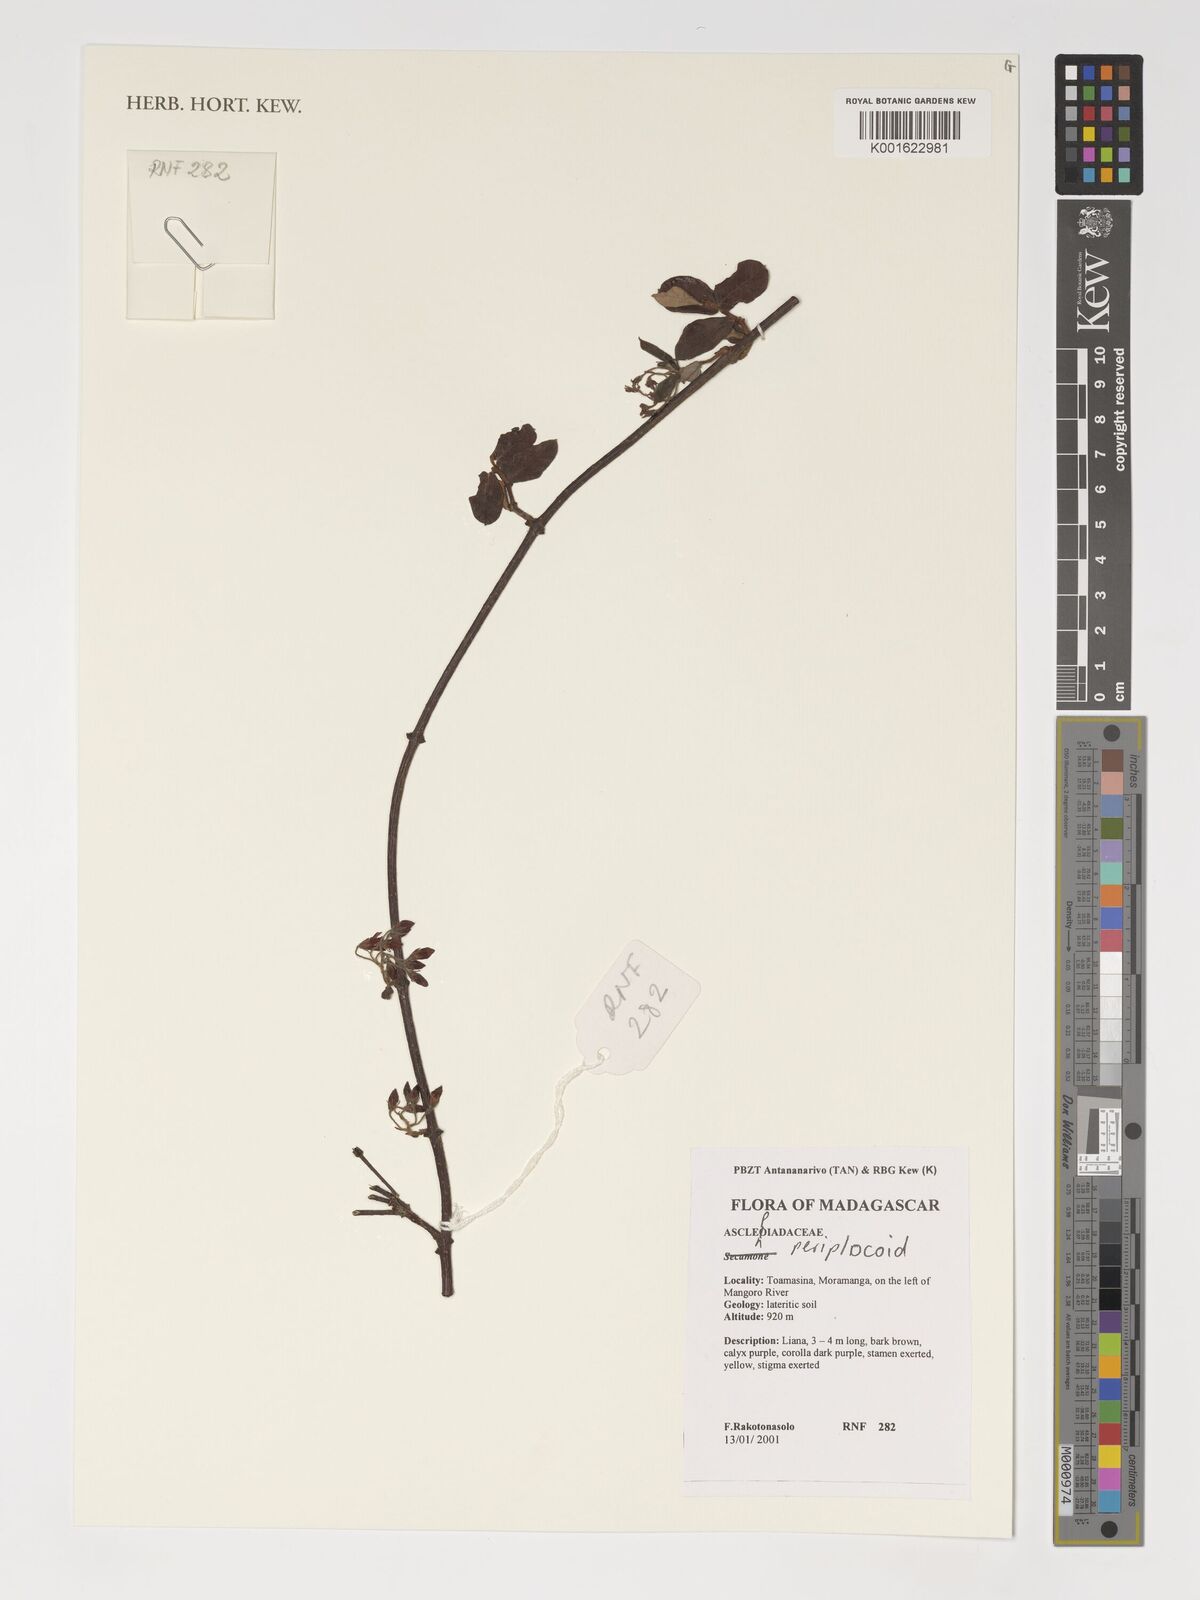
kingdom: Plantae
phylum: Tracheophyta
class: Magnoliopsida
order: Gentianales
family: Asclepiadaceae
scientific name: Asclepiadaceae
